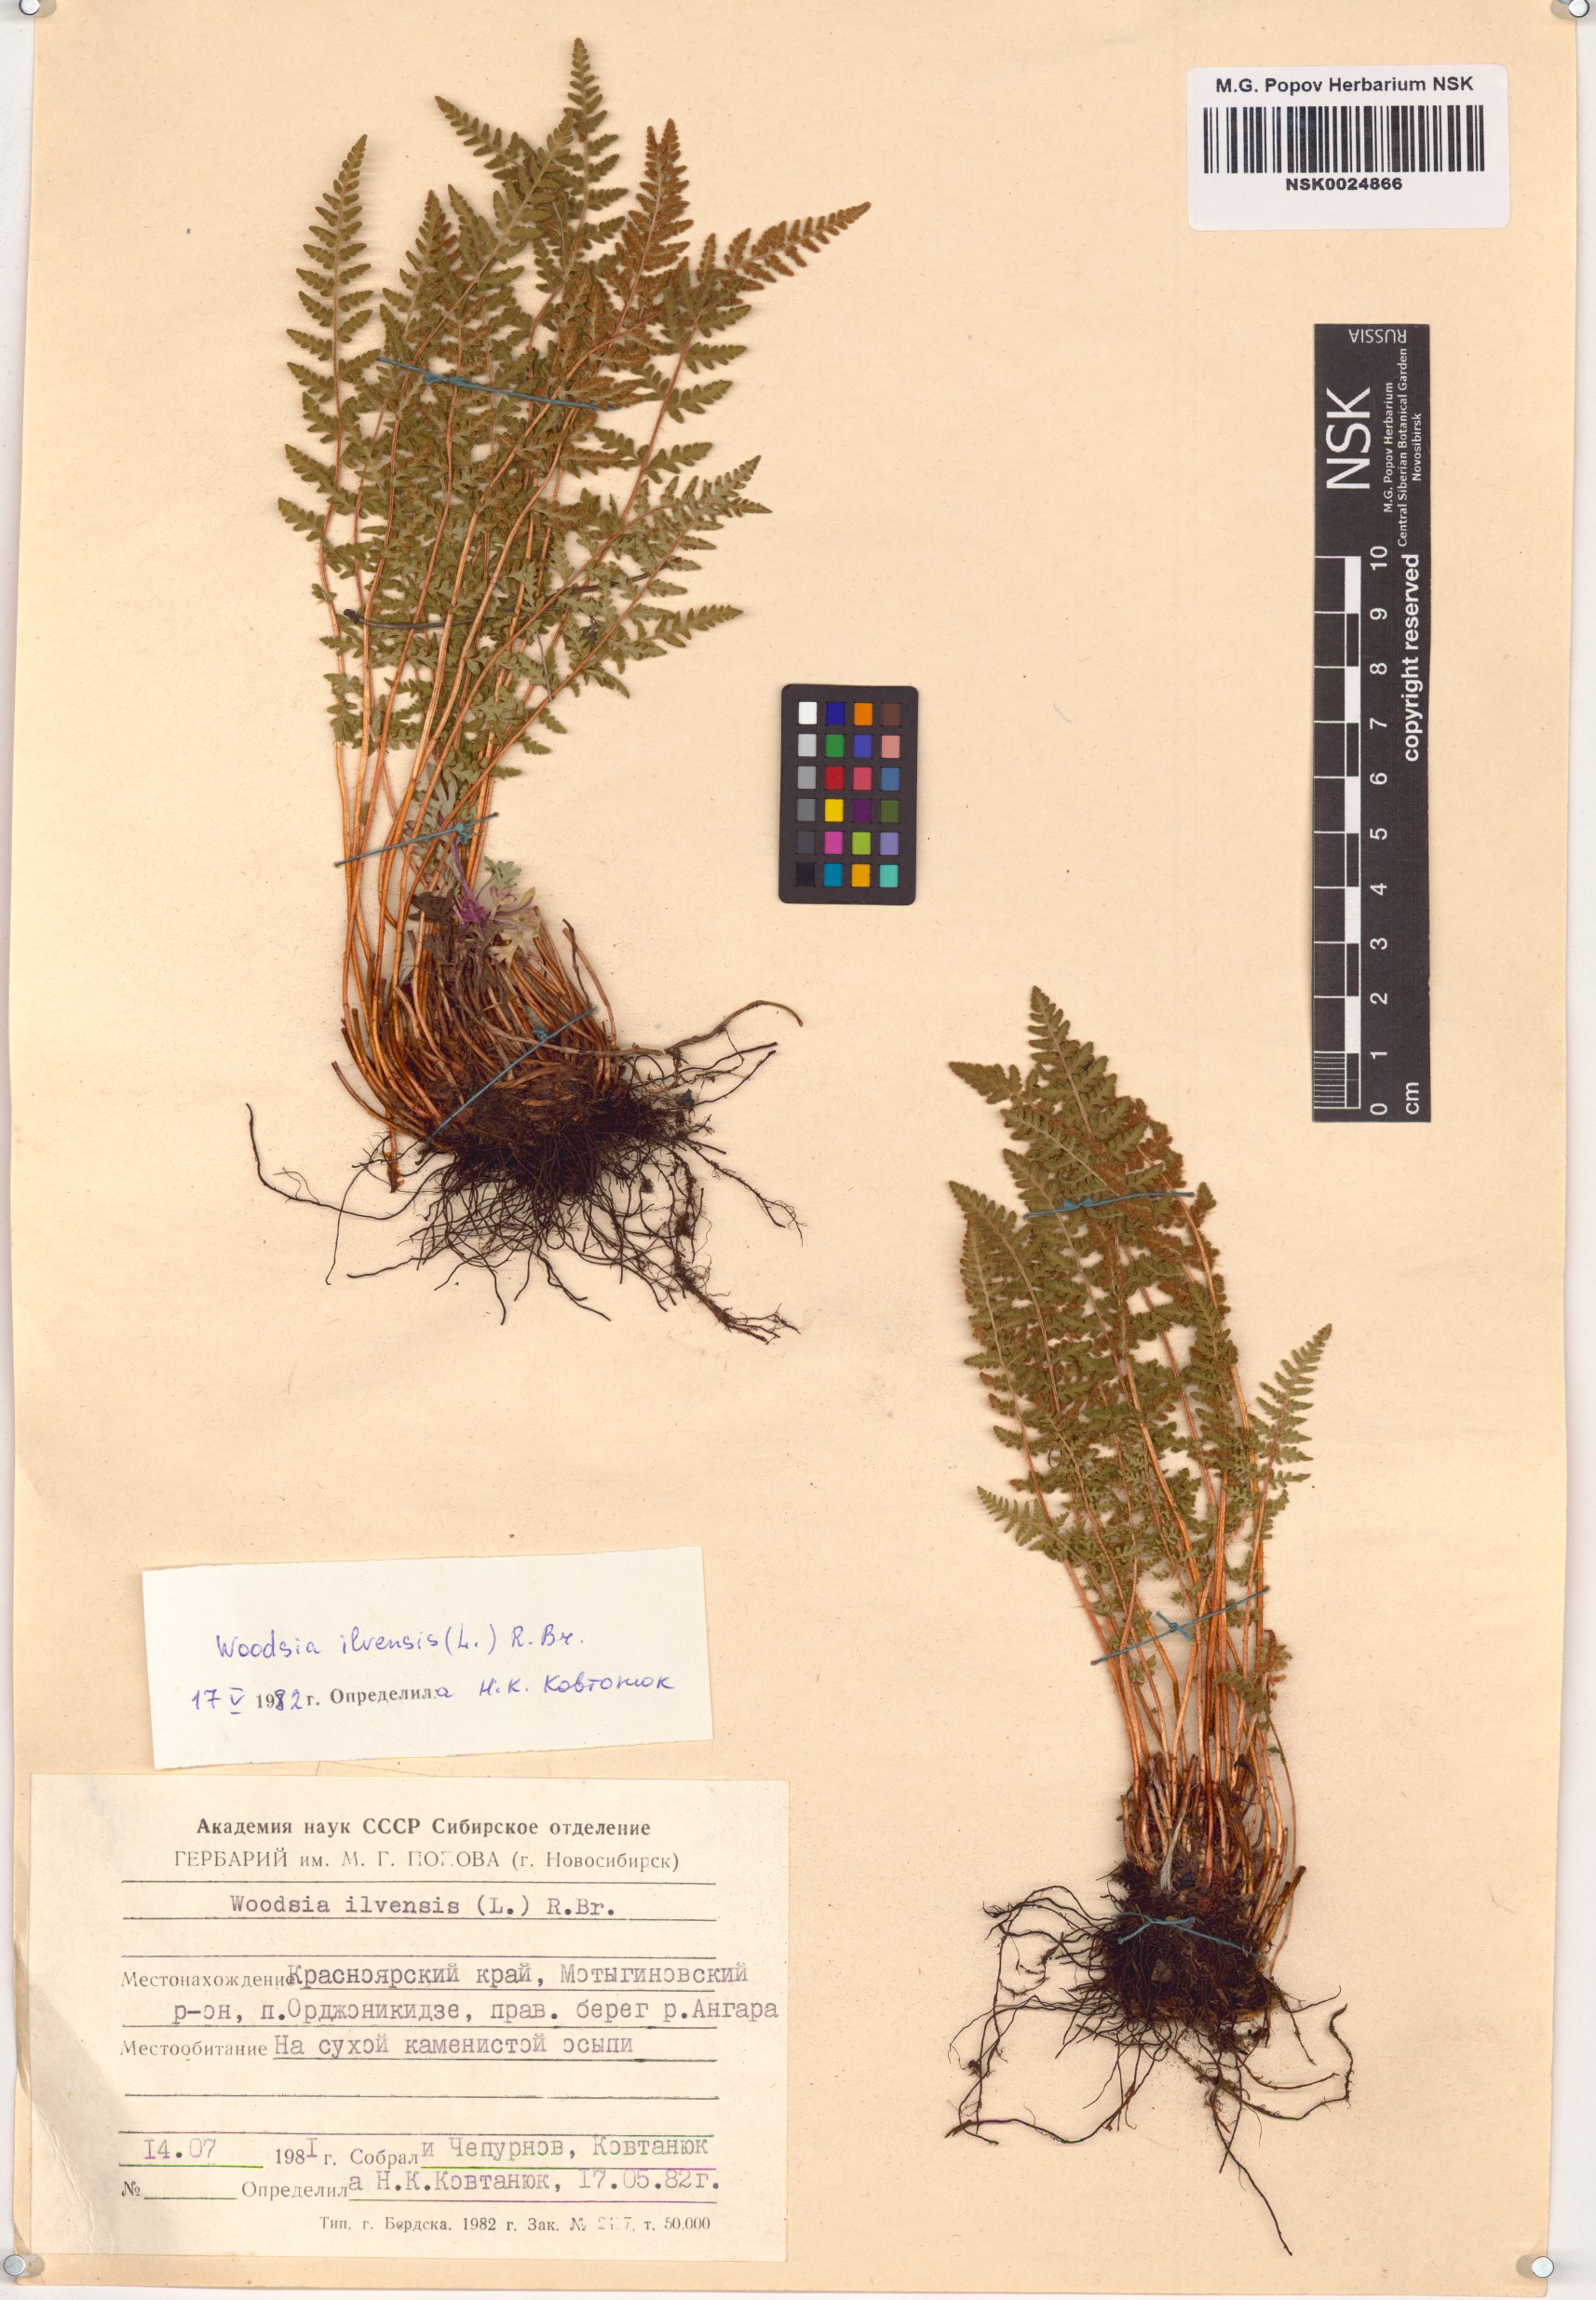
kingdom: Plantae
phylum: Tracheophyta
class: Polypodiopsida
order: Polypodiales
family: Woodsiaceae
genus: Woodsia
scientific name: Woodsia ilvensis
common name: Fragrant woodsia
